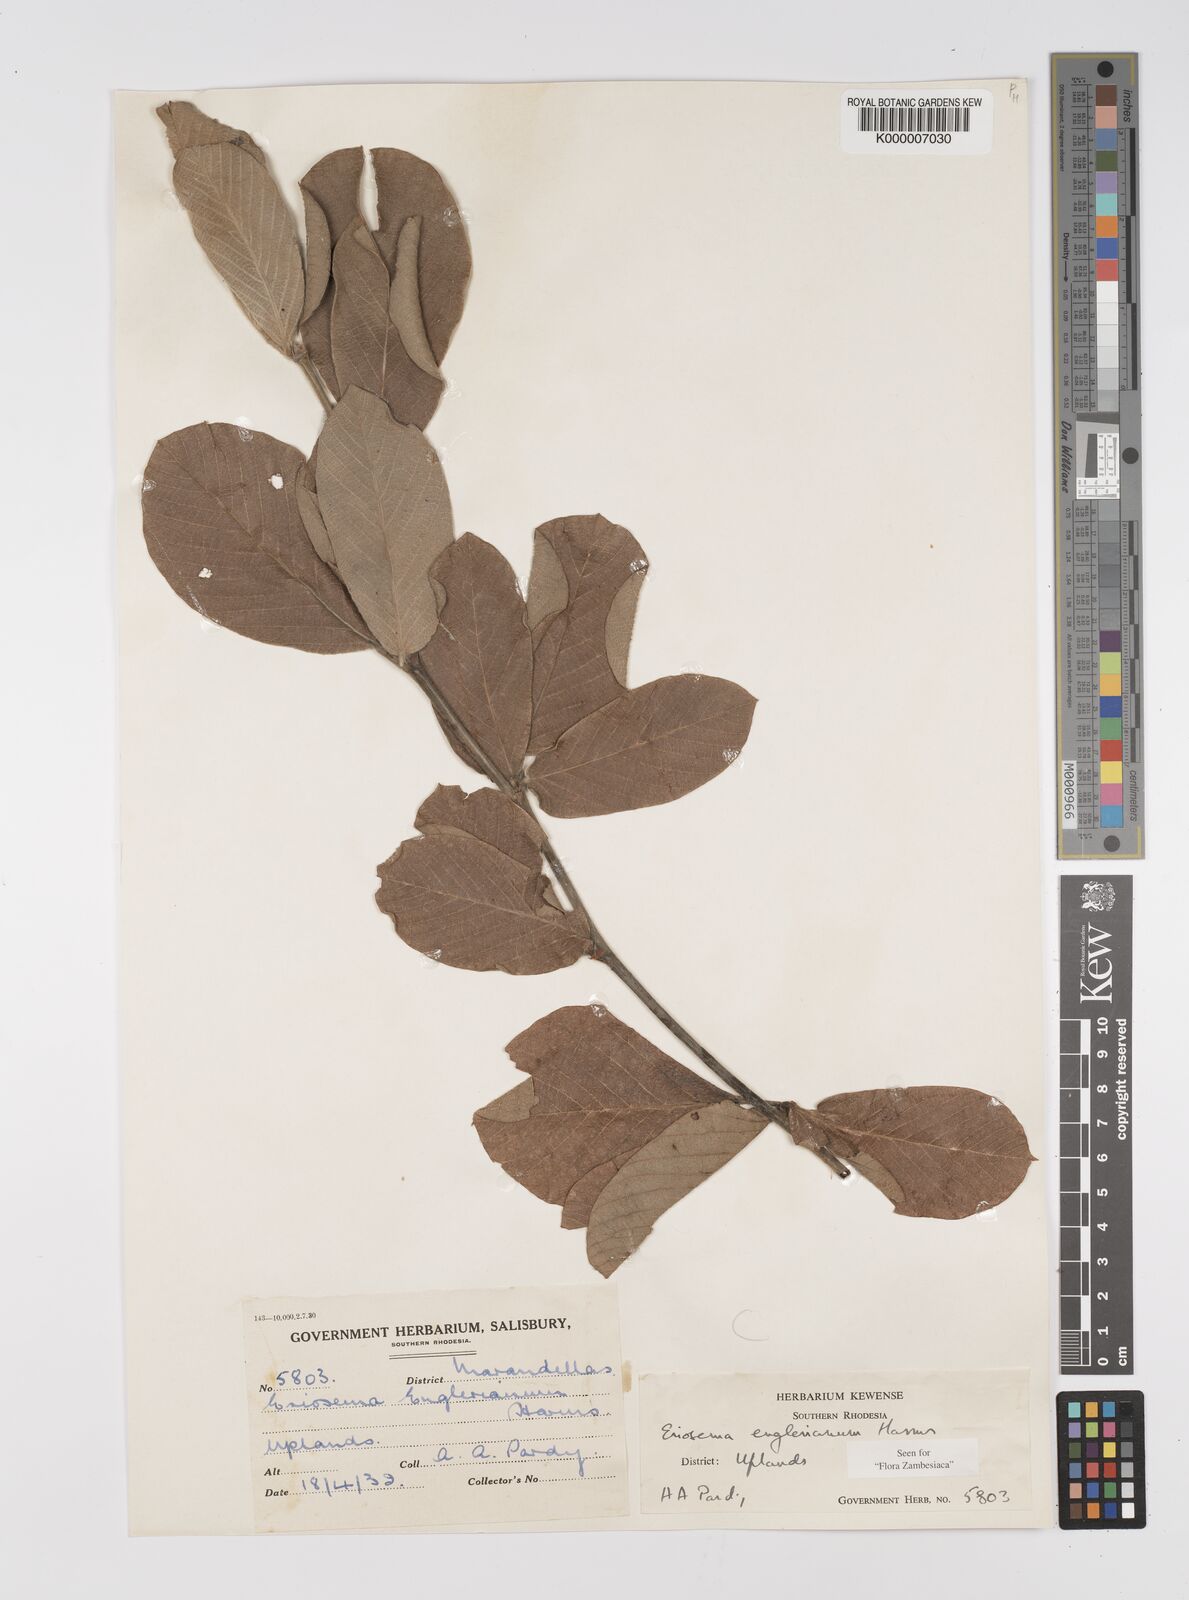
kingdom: Plantae
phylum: Tracheophyta
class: Magnoliopsida
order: Fabales
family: Fabaceae
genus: Eriosema
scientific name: Eriosema englerianum
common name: Blue bush
